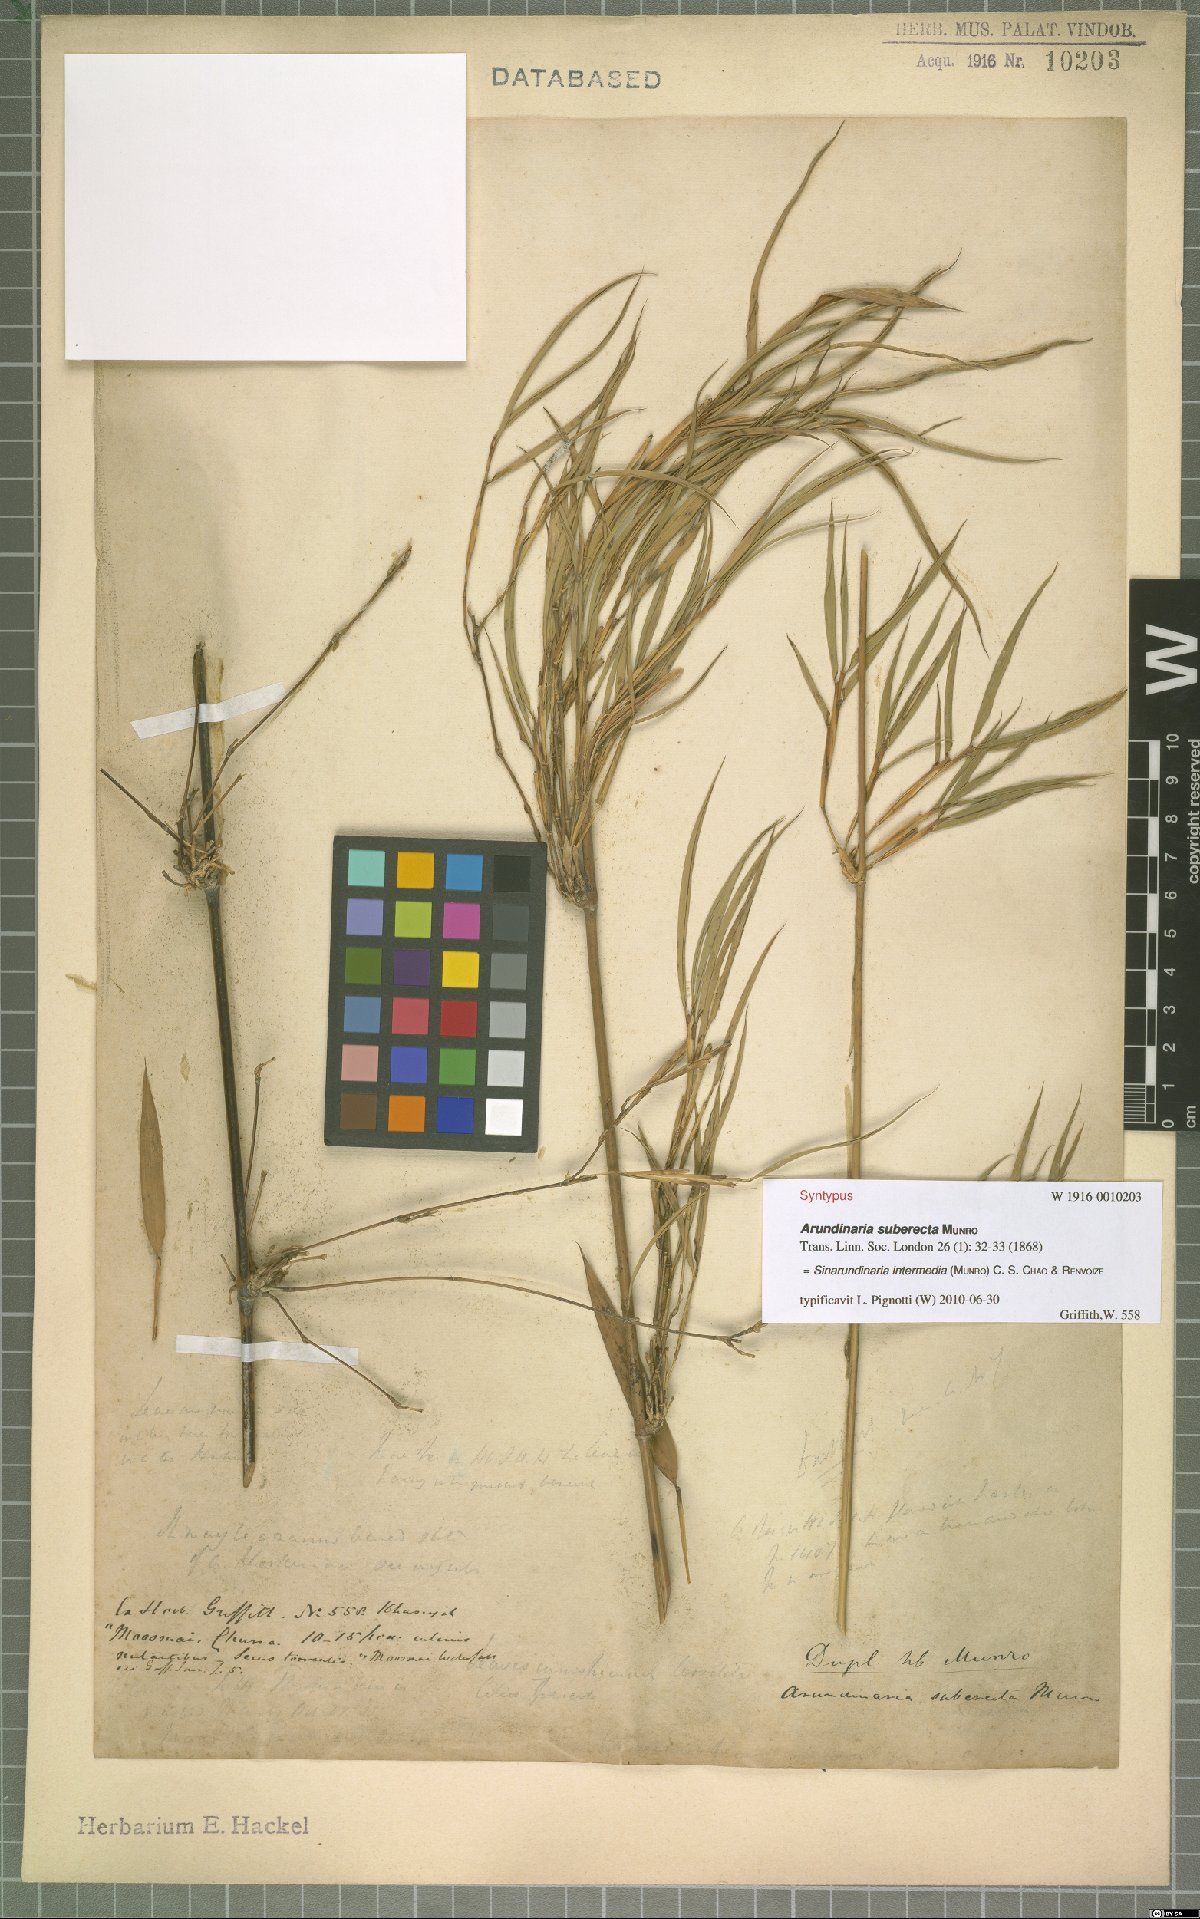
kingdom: Plantae
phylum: Tracheophyta
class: Liliopsida
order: Poales
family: Poaceae
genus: Drepanostachyum
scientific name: Drepanostachyum intermedium
